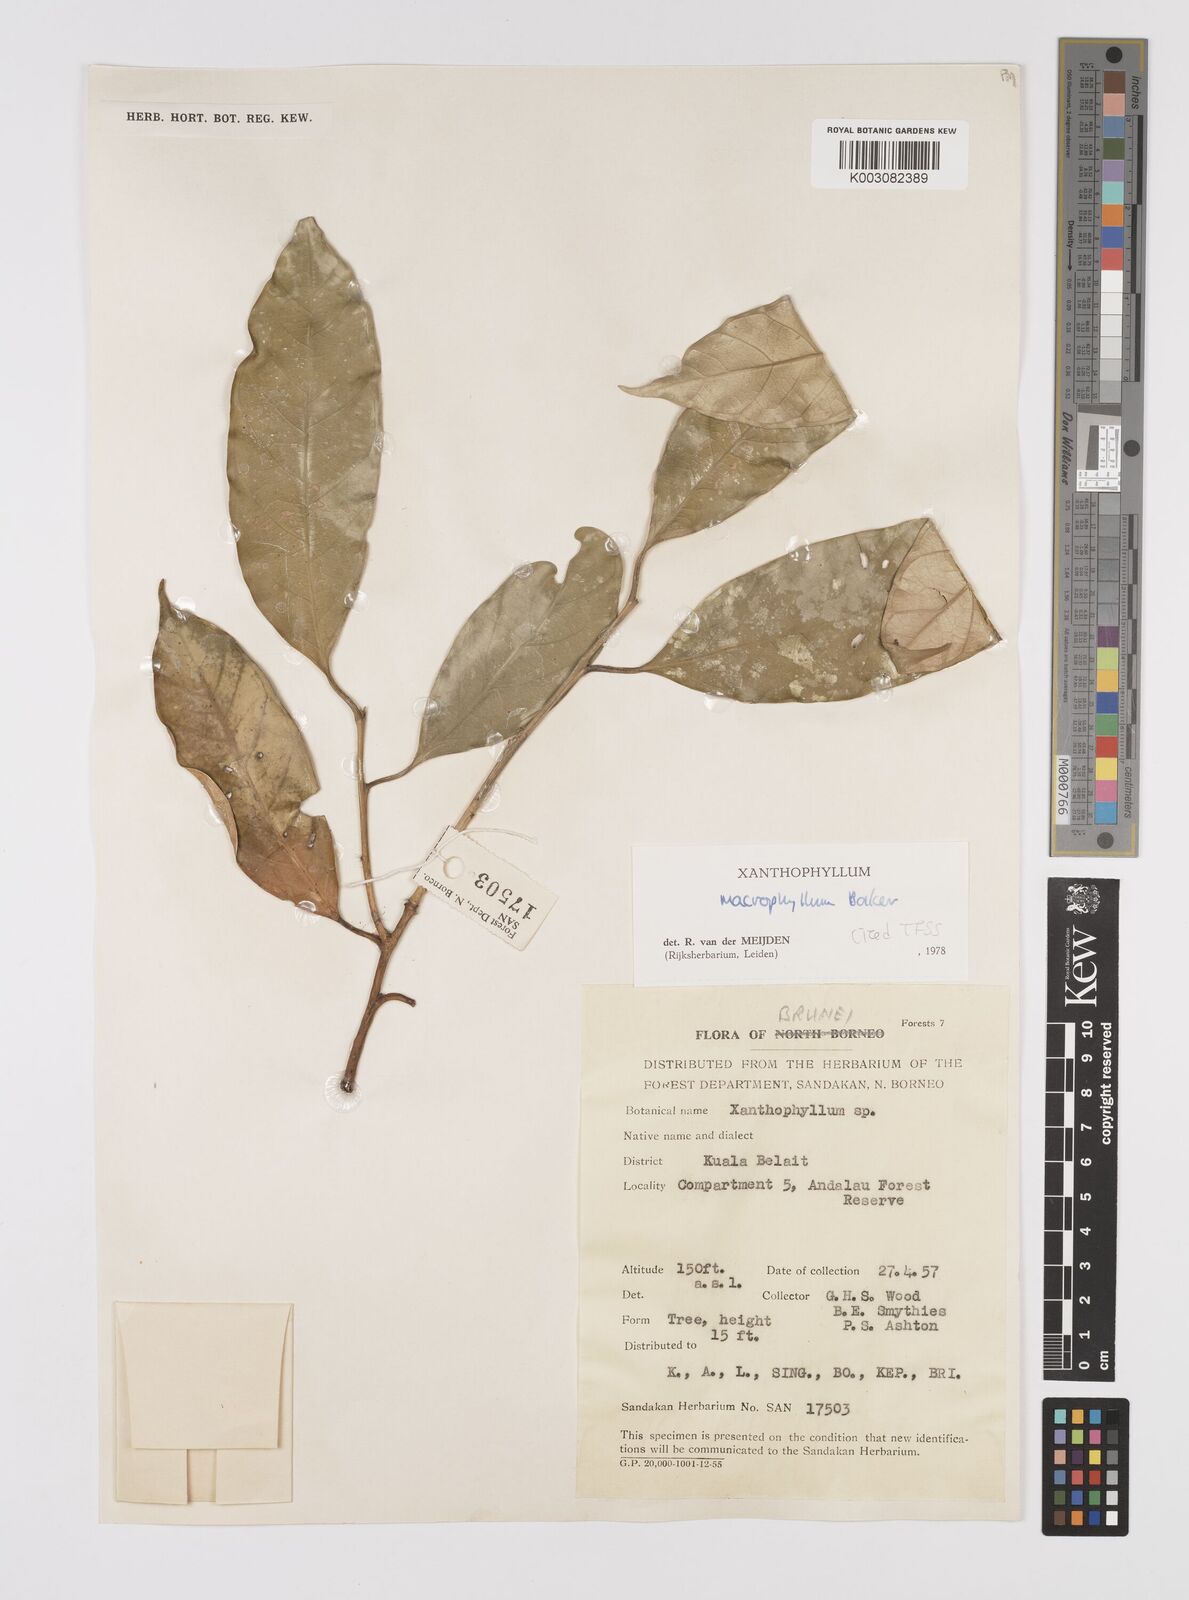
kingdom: Plantae
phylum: Tracheophyta
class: Magnoliopsida
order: Fabales
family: Polygalaceae
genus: Xanthophyllum
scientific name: Xanthophyllum macrophyllum
